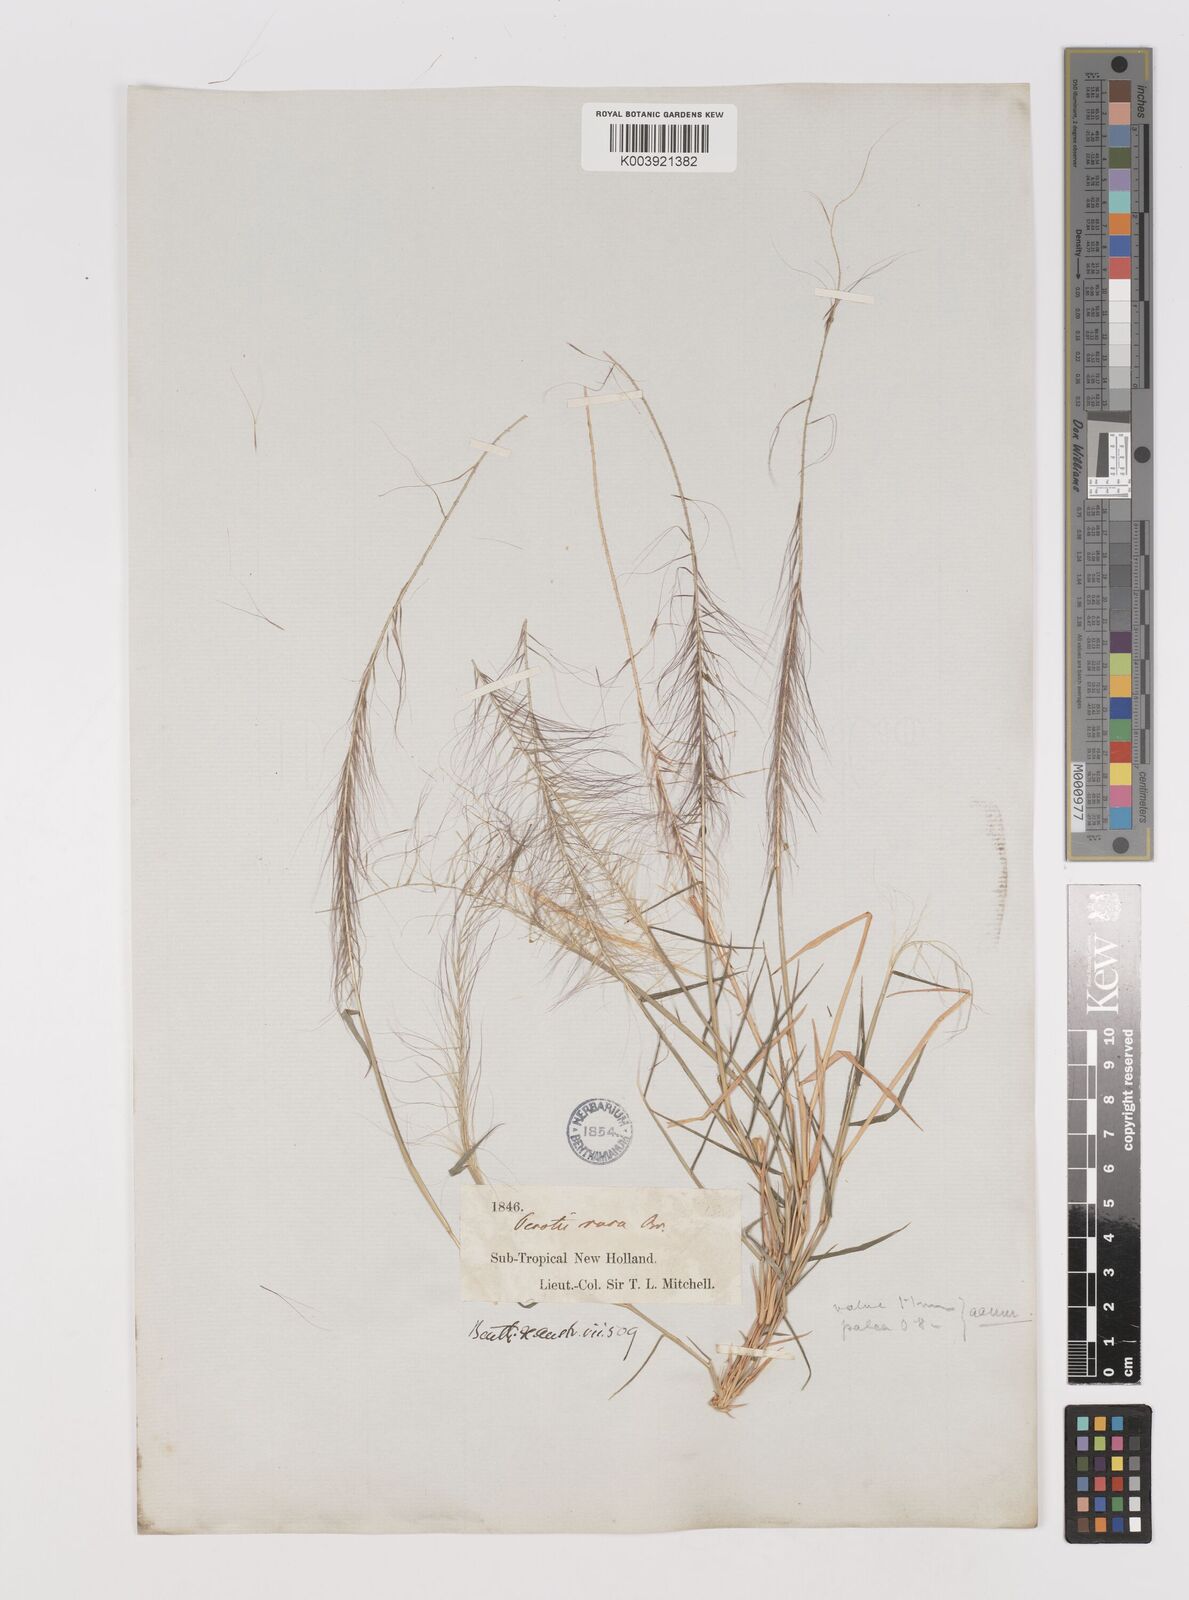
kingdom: Plantae
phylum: Tracheophyta
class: Liliopsida
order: Poales
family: Poaceae
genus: Perotis
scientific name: Perotis rara
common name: Comet grass
